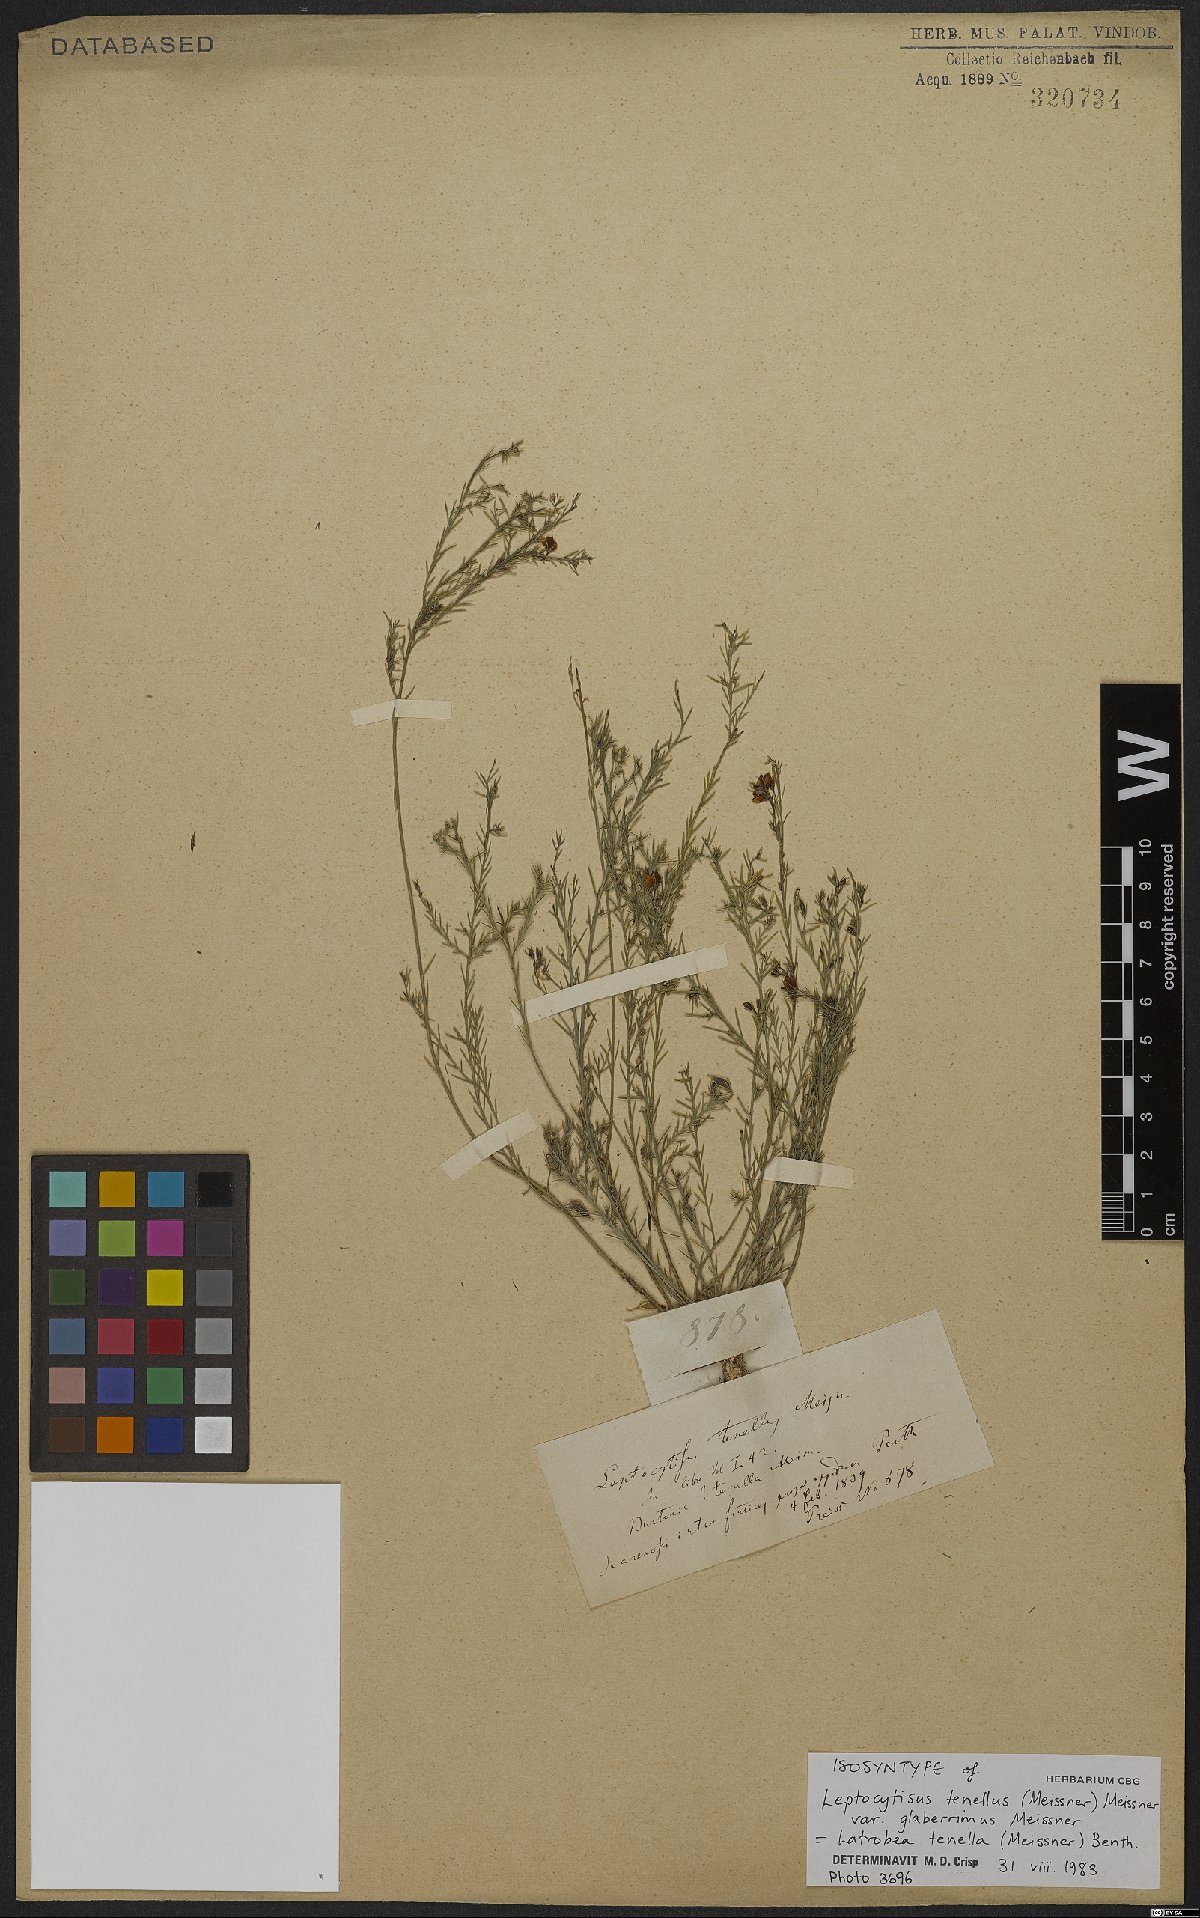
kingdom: Plantae
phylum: Tracheophyta
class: Magnoliopsida
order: Fabales
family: Fabaceae
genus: Latrobea
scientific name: Latrobea tenella
